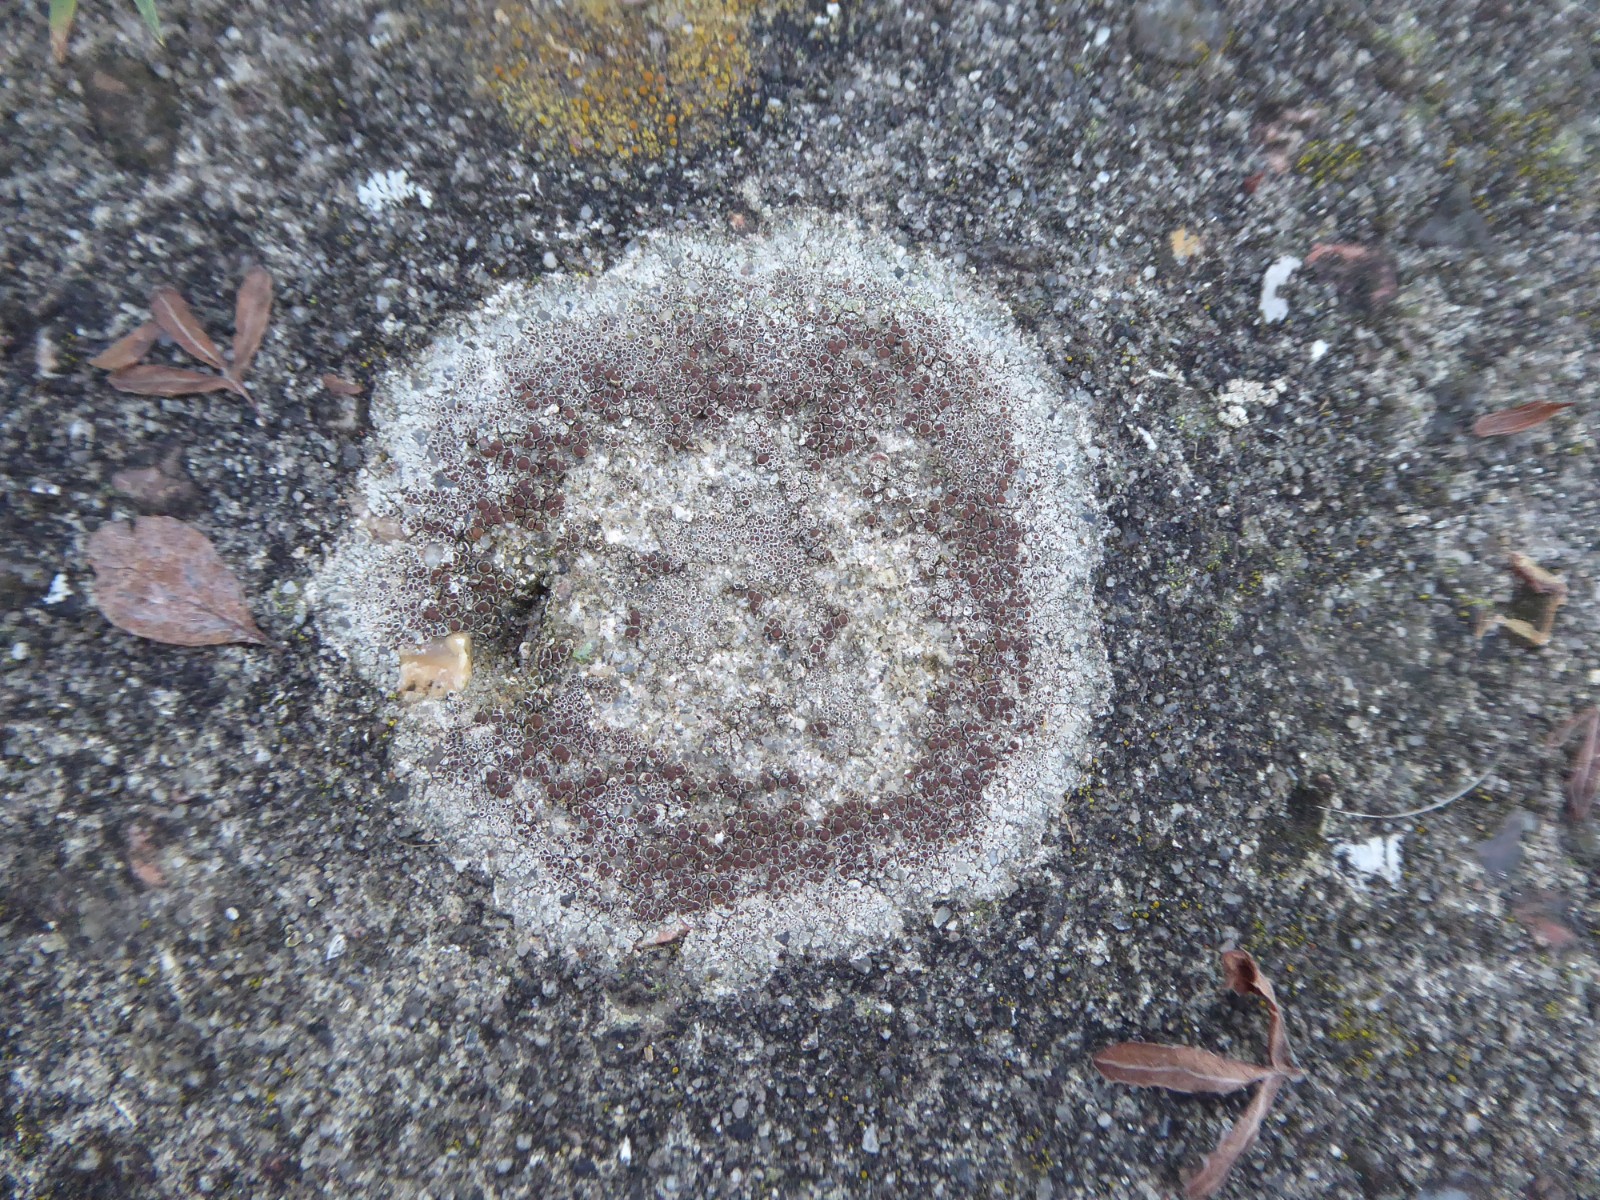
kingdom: Fungi
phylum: Ascomycota
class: Lecanoromycetes
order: Lecanorales
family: Lecanoraceae
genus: Lecanora
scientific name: Lecanora campestris
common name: mur-kantskivelav
